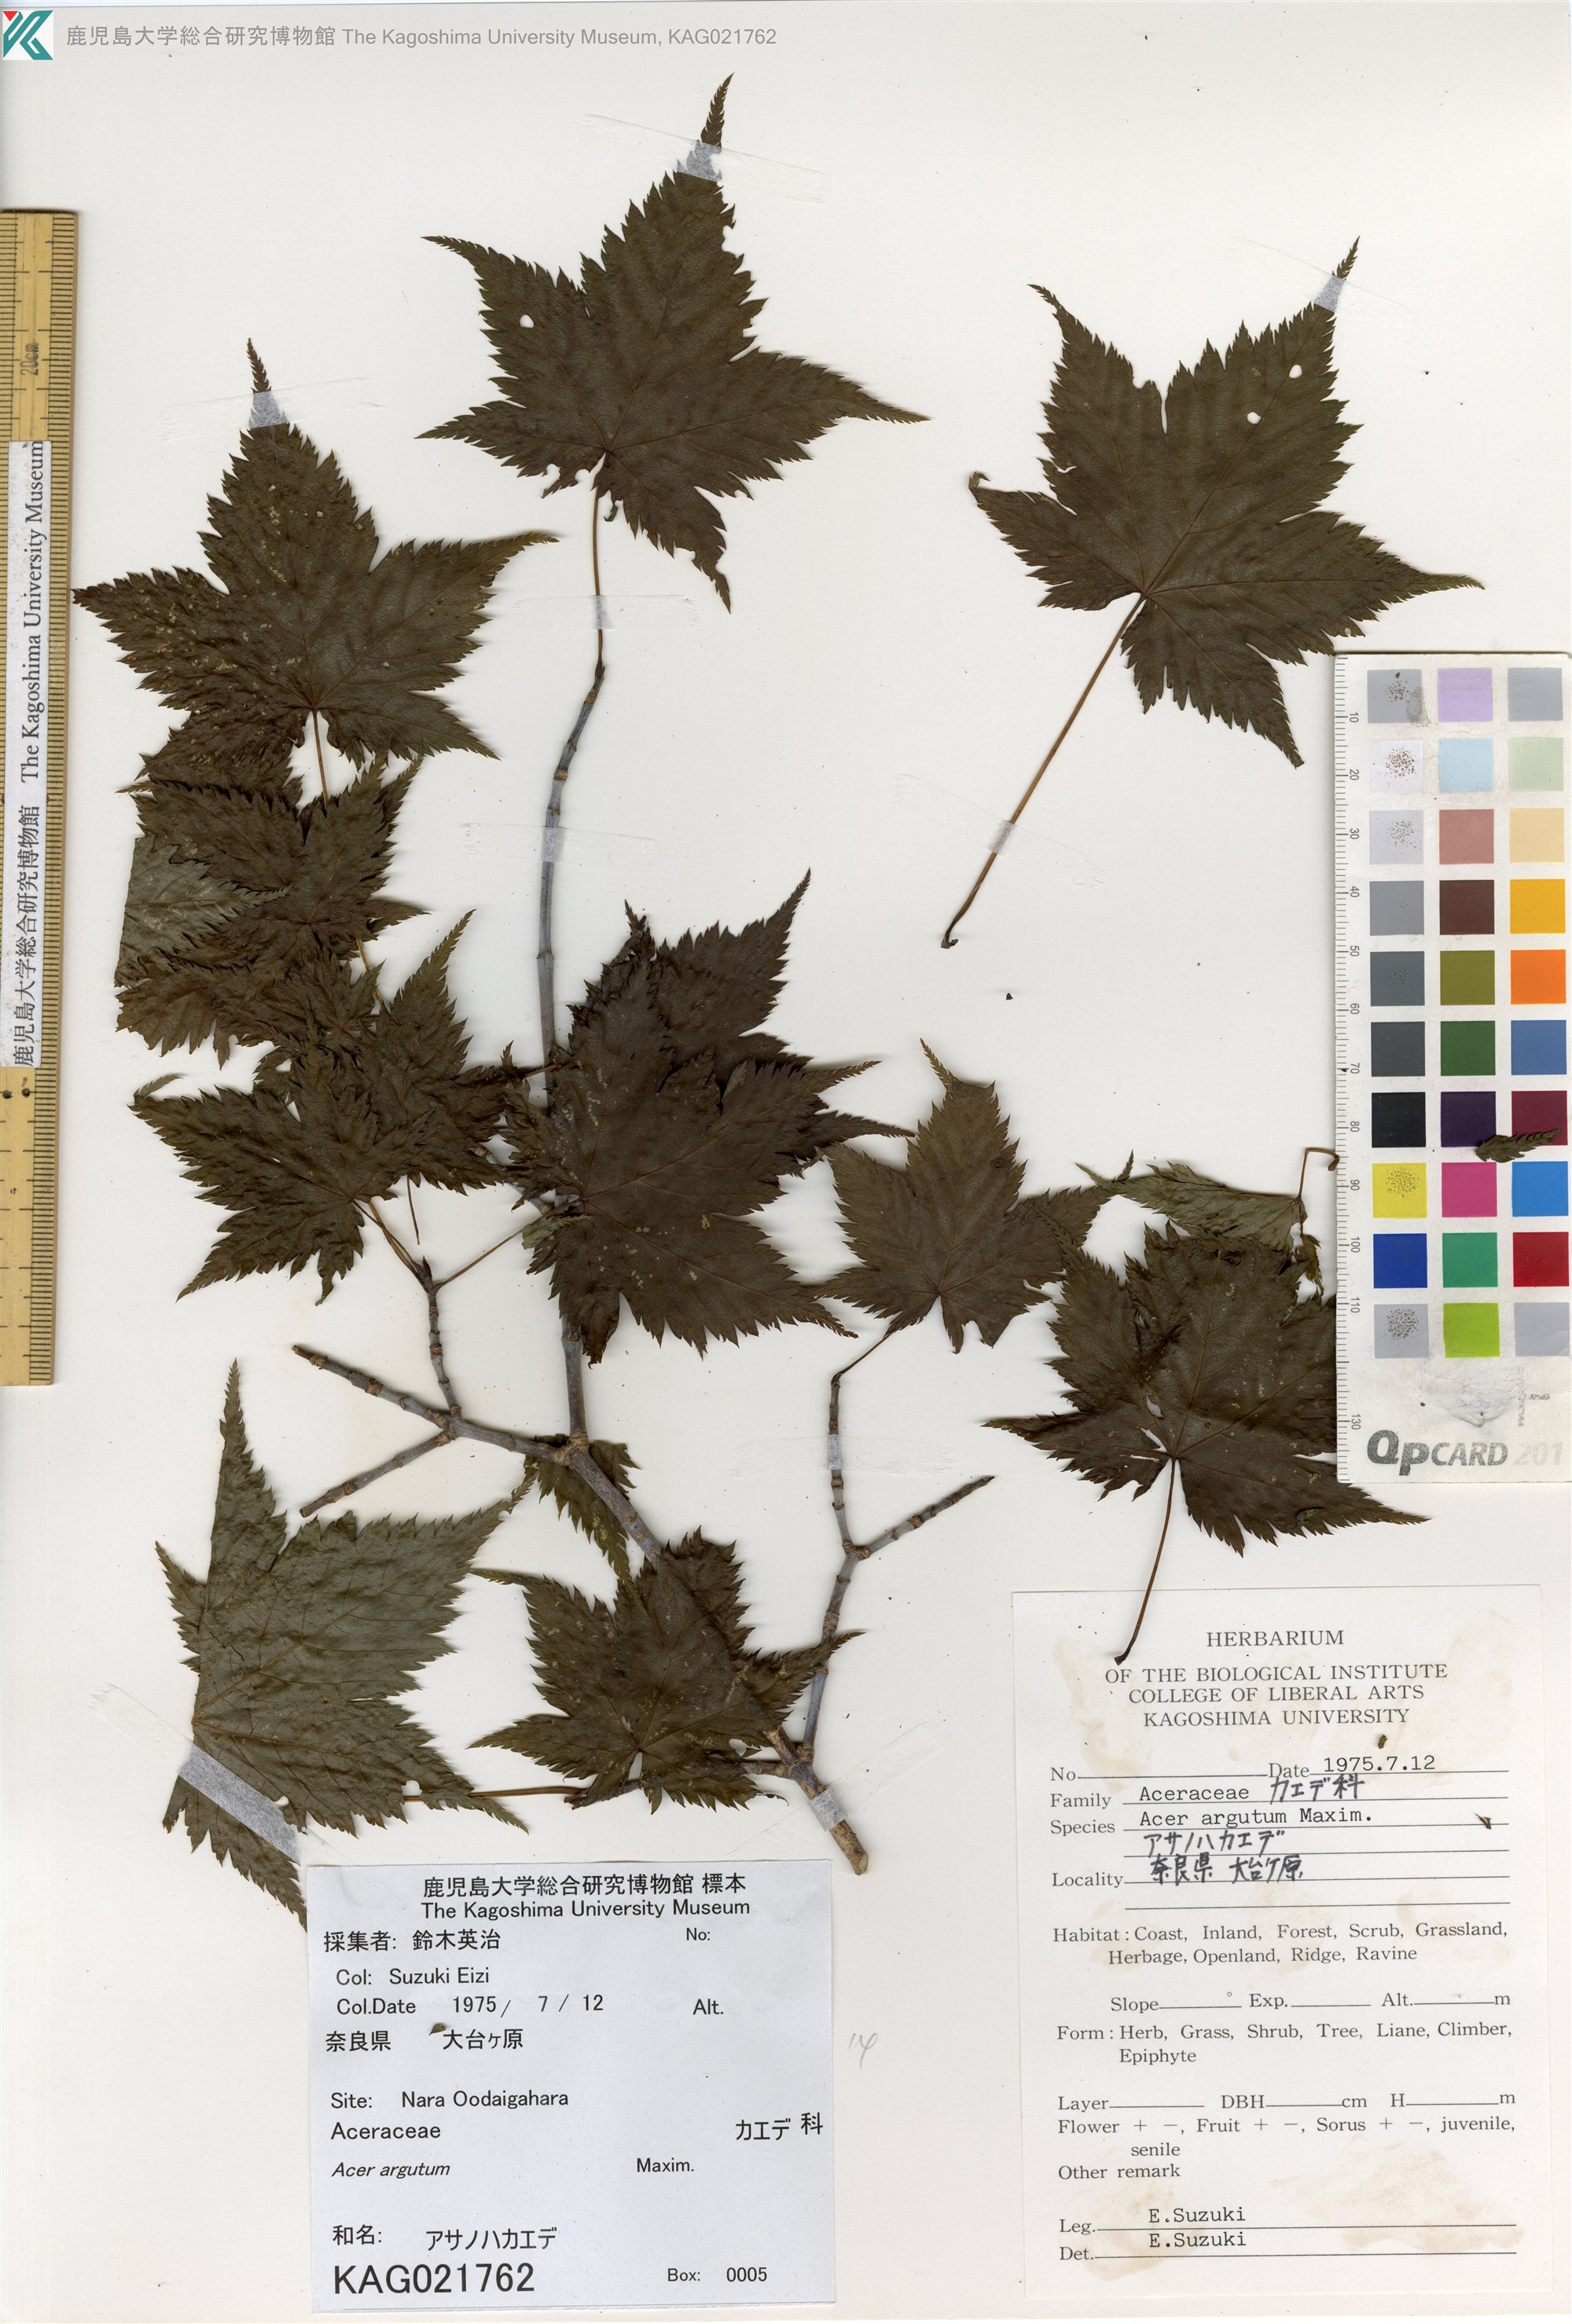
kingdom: Plantae
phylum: Tracheophyta
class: Magnoliopsida
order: Sapindales
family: Sapindaceae
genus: Acer
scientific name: Acer argutum
